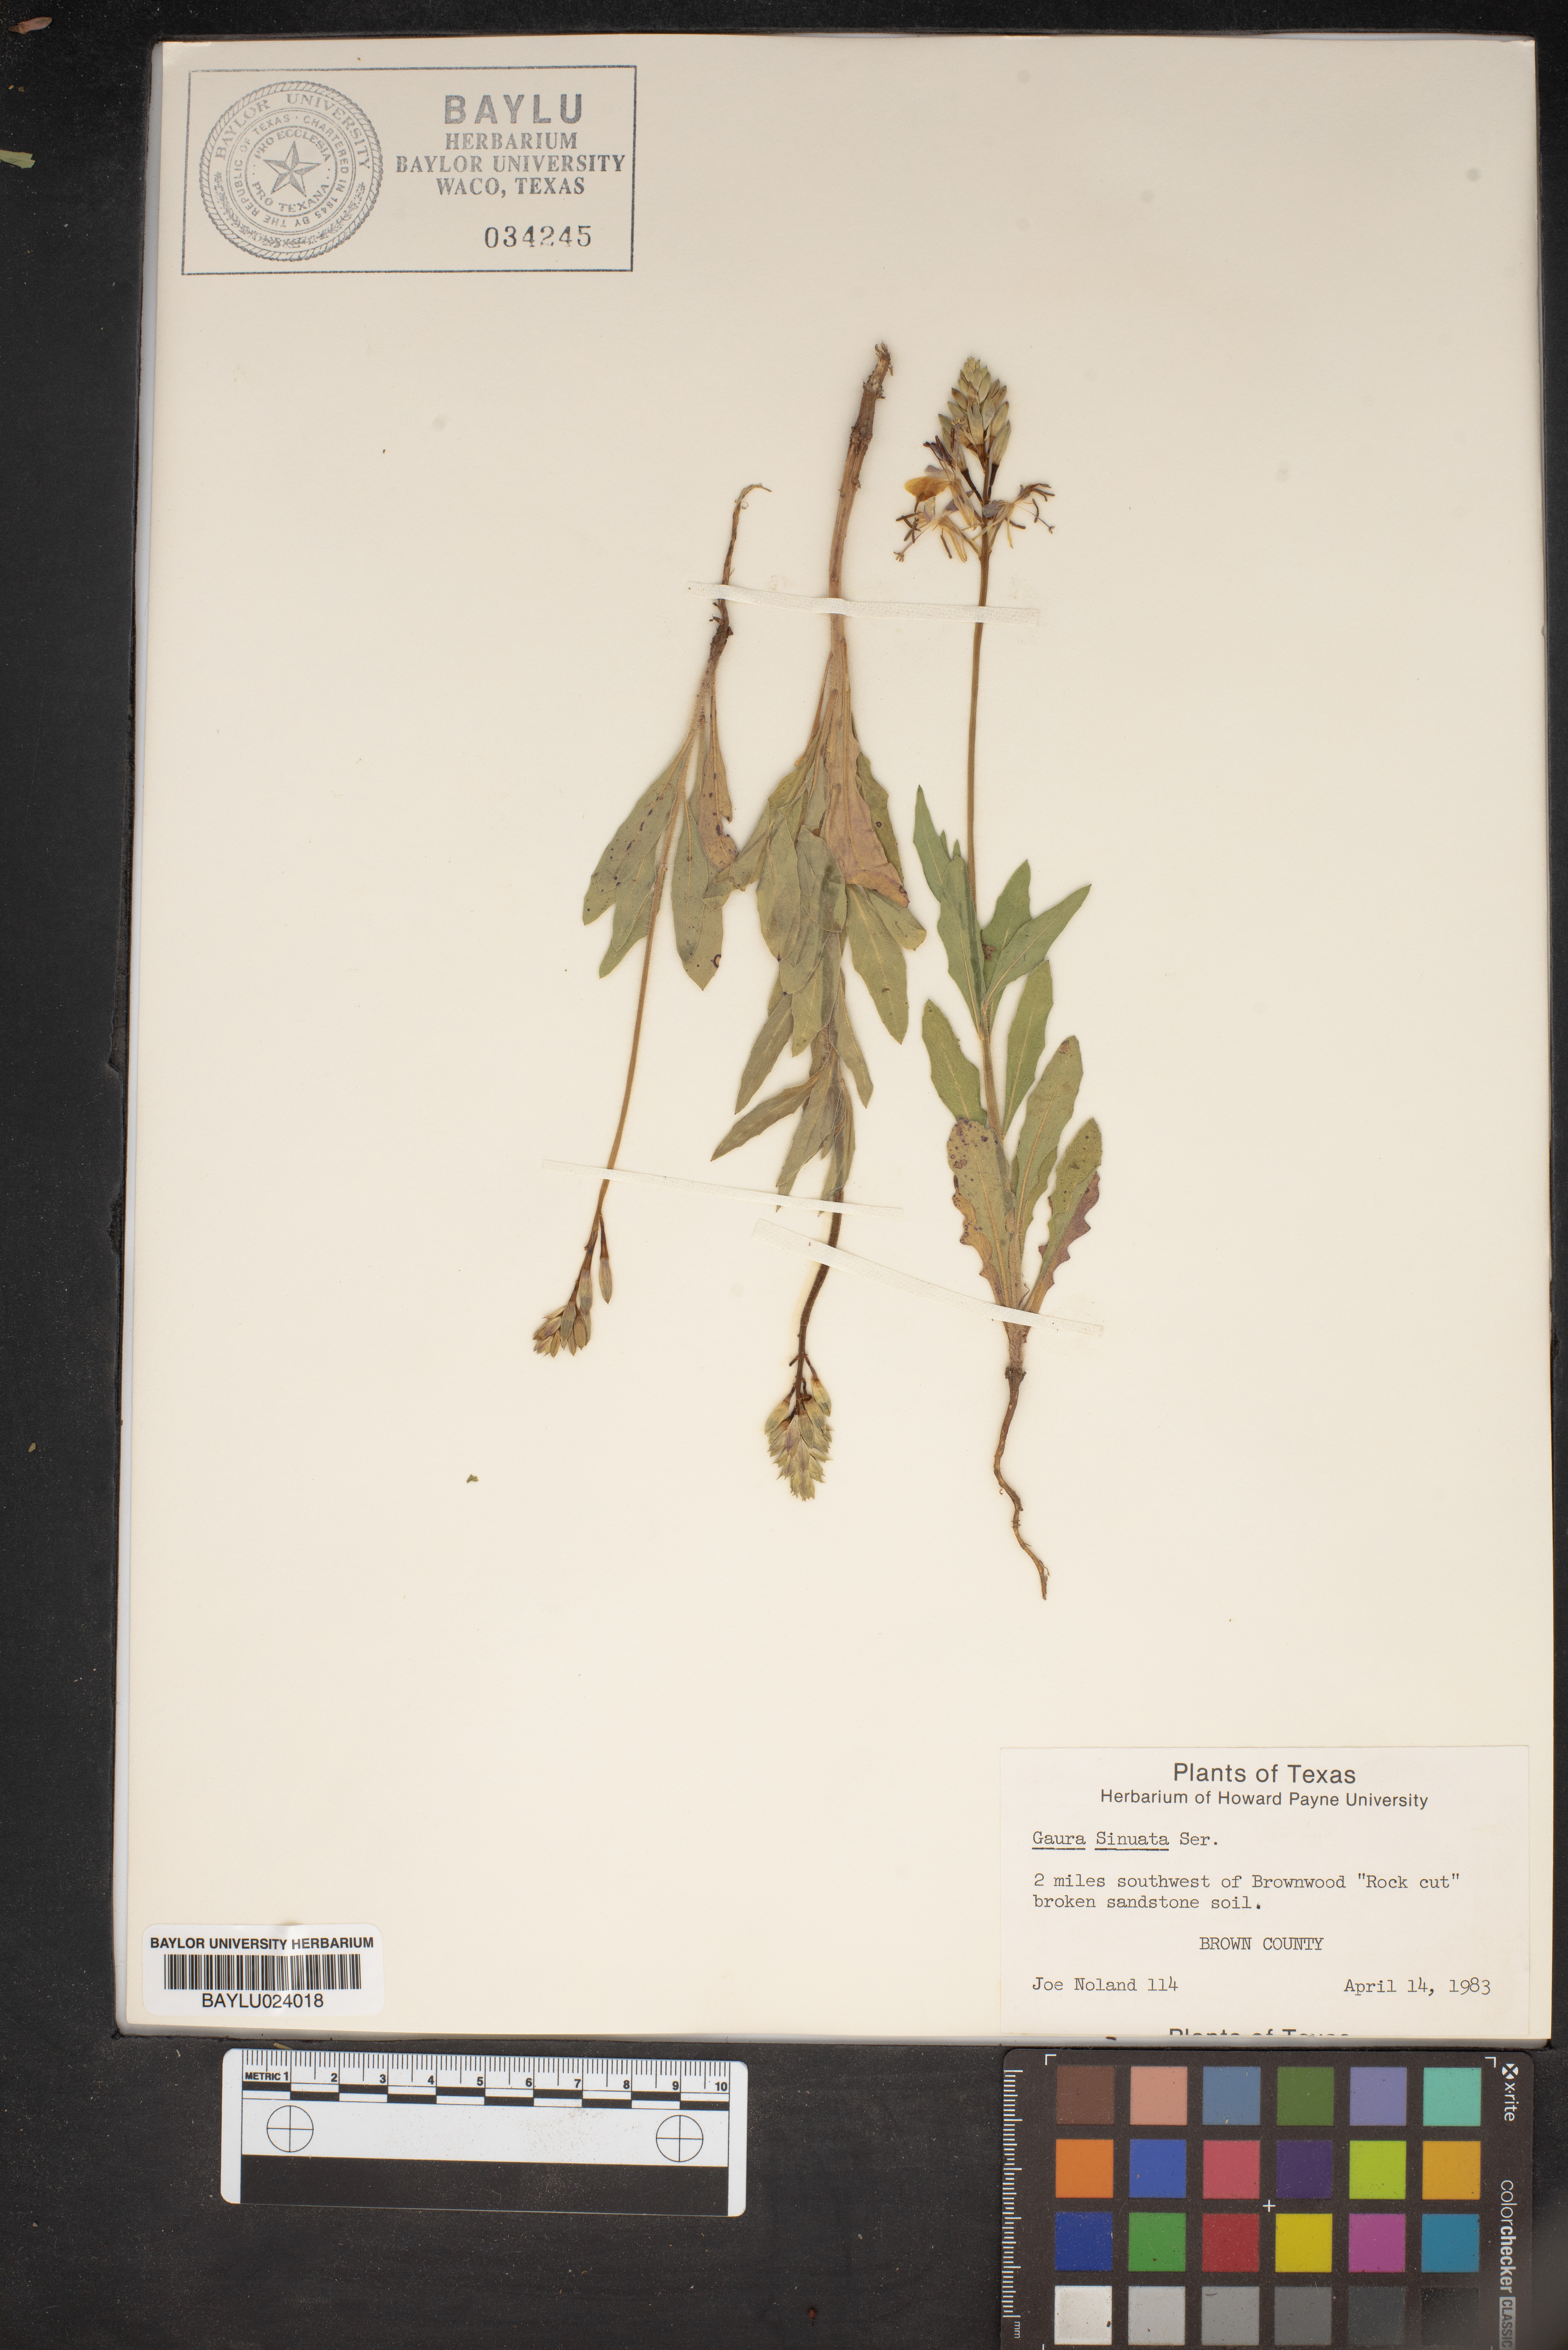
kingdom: Plantae
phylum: Tracheophyta
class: Magnoliopsida
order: Myrtales
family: Onagraceae
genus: Oenothera
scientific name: Oenothera sinuosa
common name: Wavyleaf beeblossom
